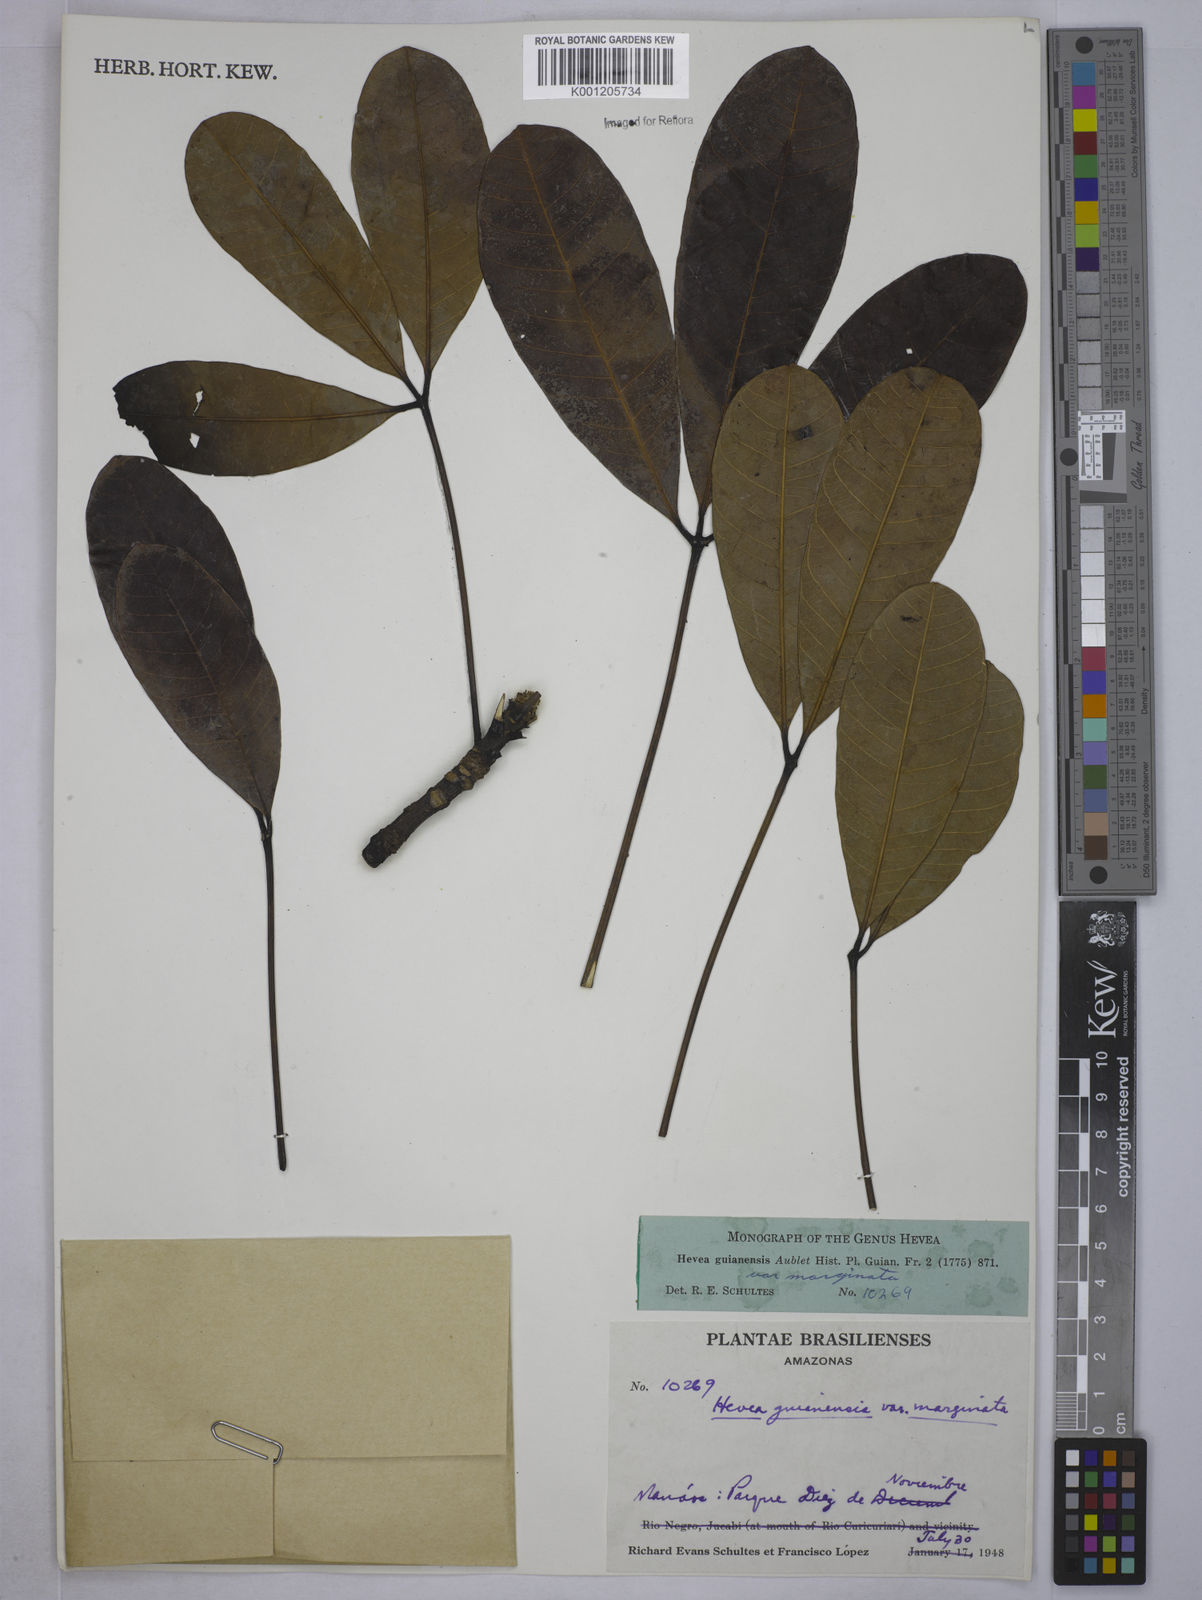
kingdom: Plantae
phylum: Tracheophyta
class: Magnoliopsida
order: Malpighiales
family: Euphorbiaceae
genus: Hevea
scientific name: Hevea guianensis
